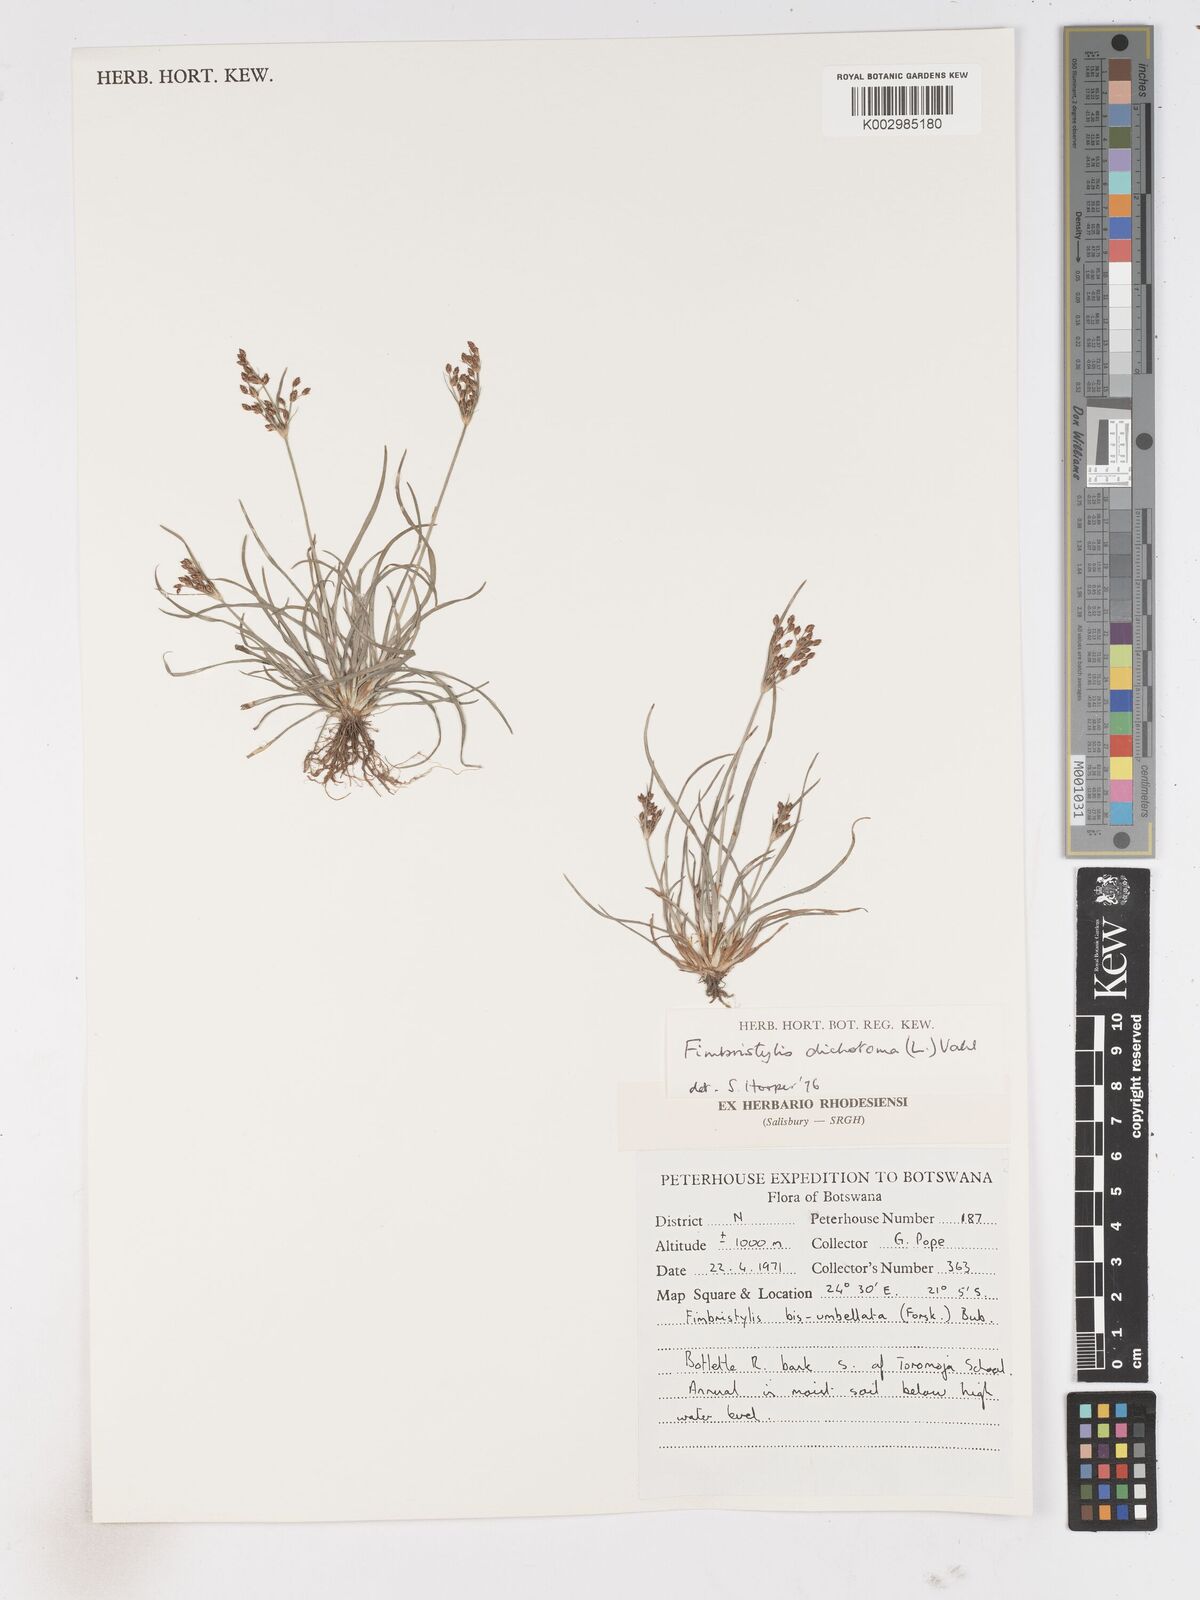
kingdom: Plantae
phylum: Tracheophyta
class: Liliopsida
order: Poales
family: Cyperaceae
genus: Fimbristylis
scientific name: Fimbristylis dichotoma
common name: Forked fimbry
